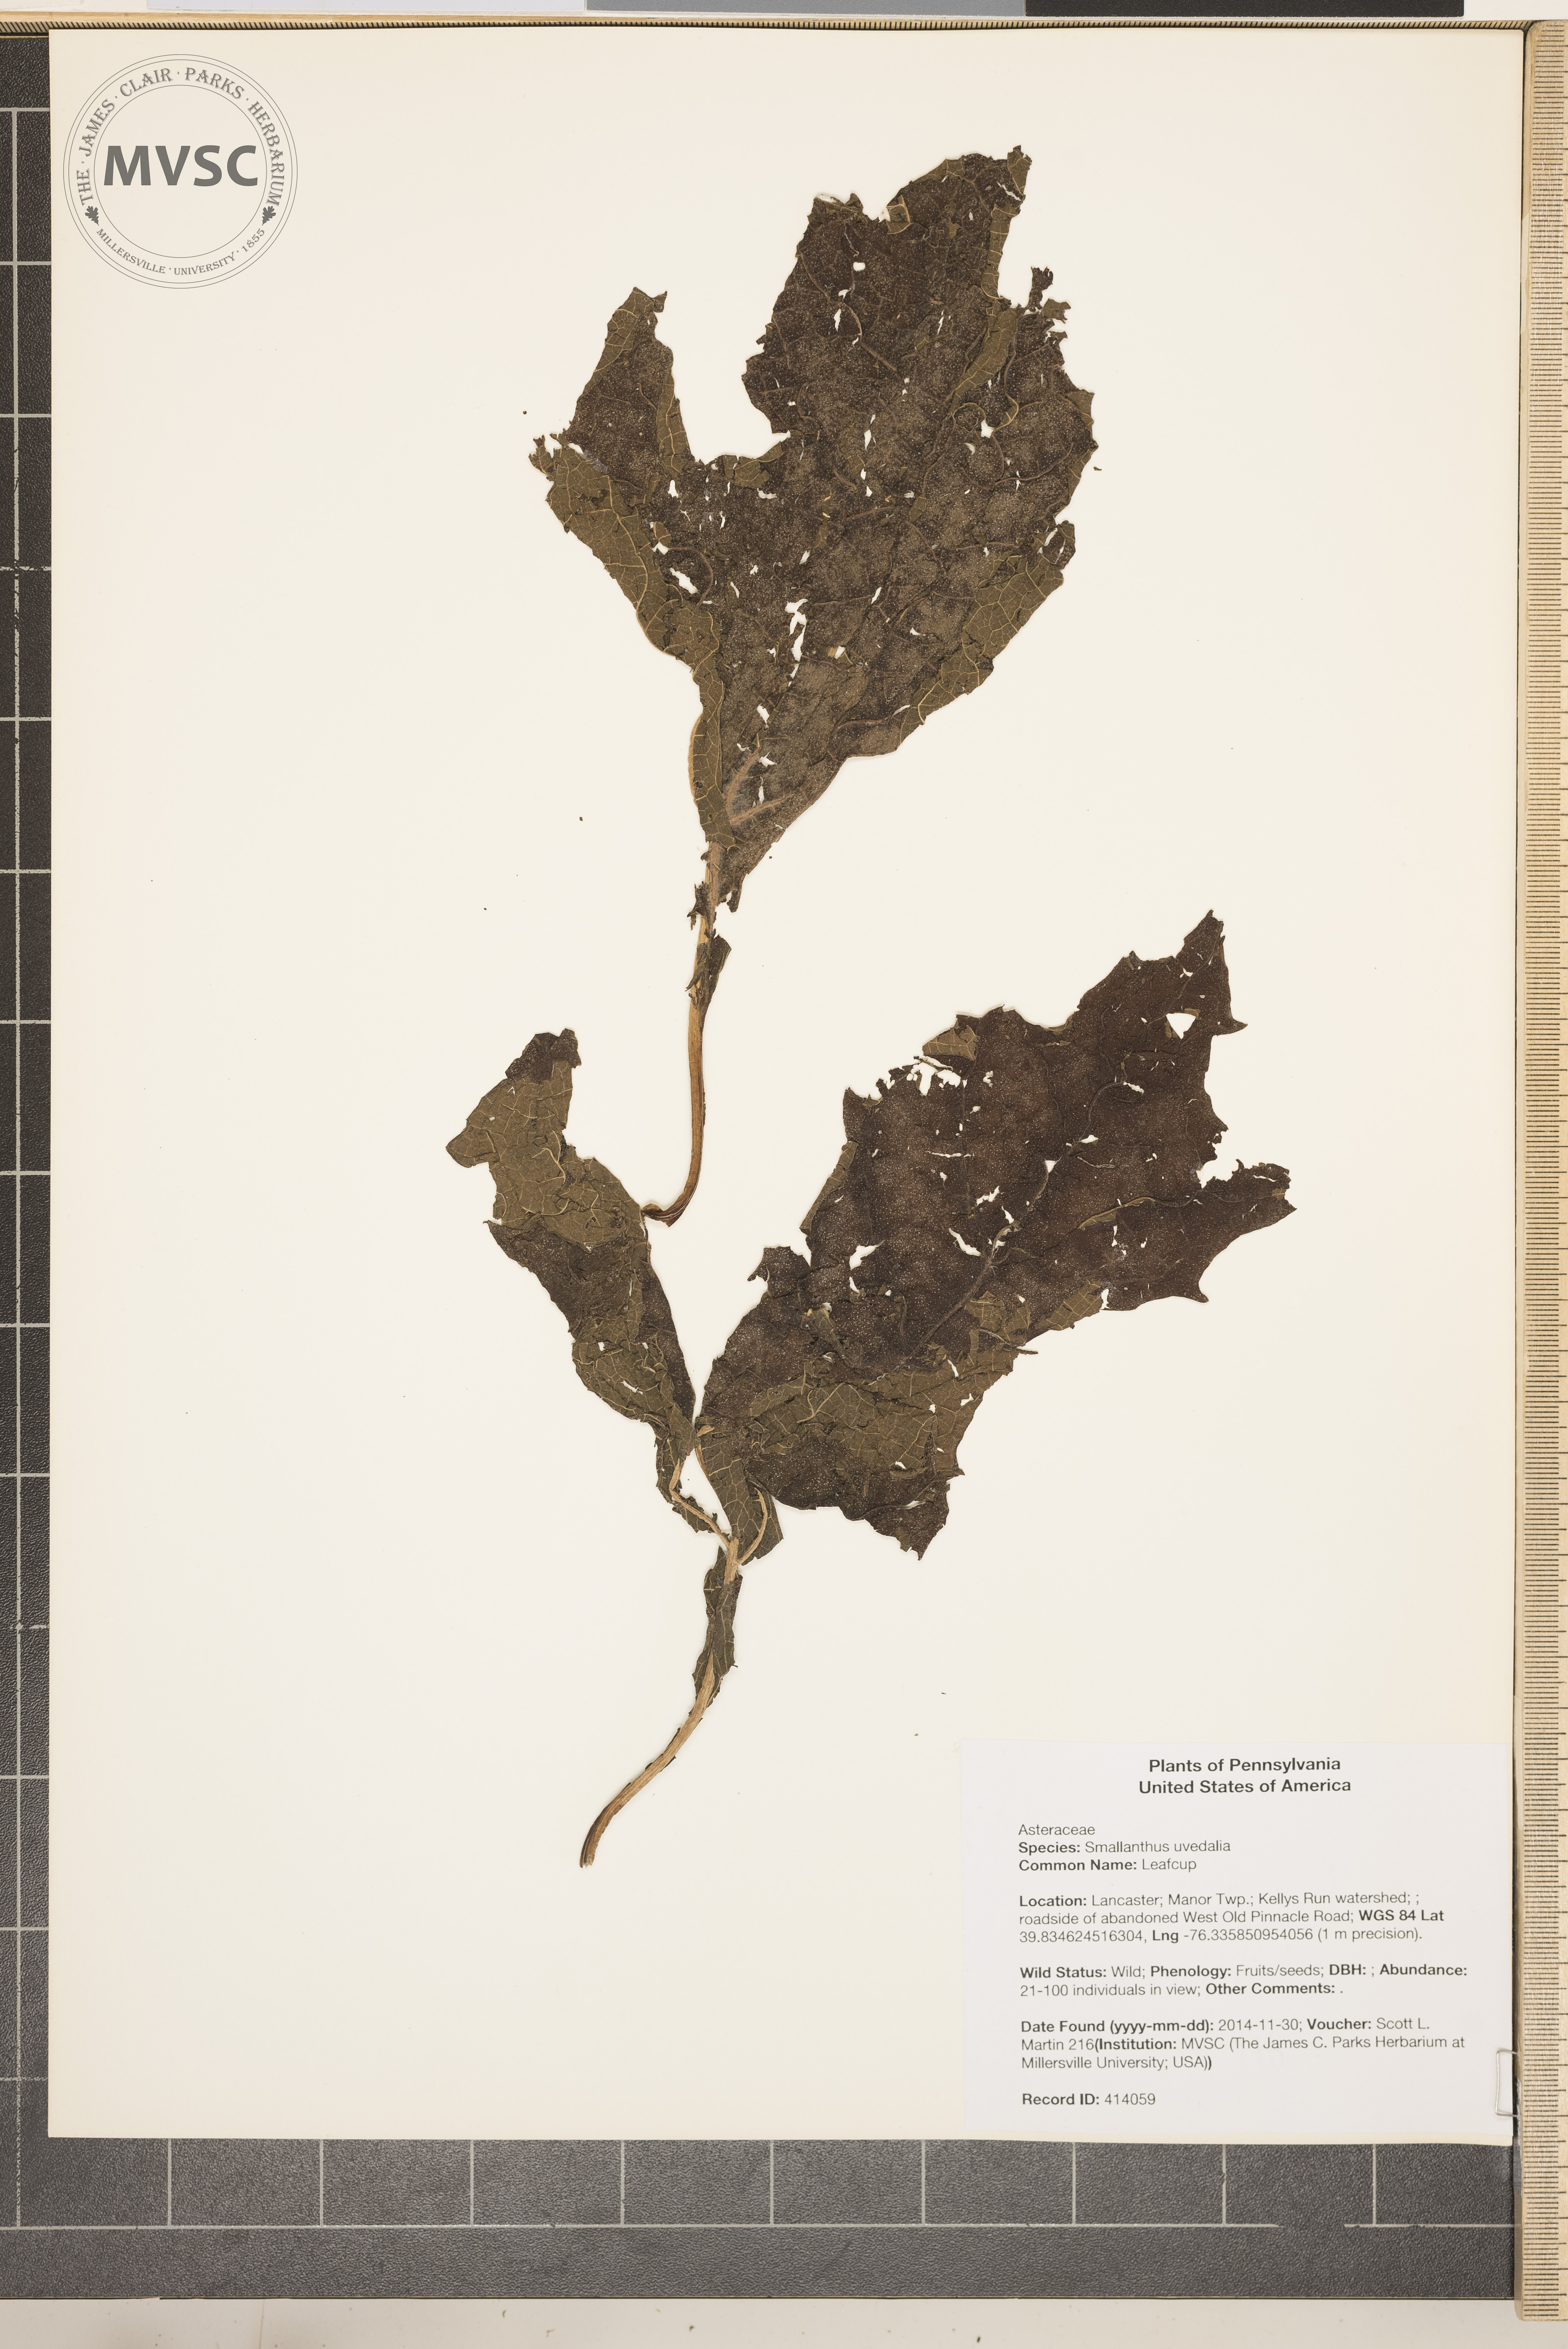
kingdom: Plantae
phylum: Tracheophyta
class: Magnoliopsida
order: Asterales
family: Asteraceae
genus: Smallanthus
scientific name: Smallanthus uvedalia
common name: Leafcup
